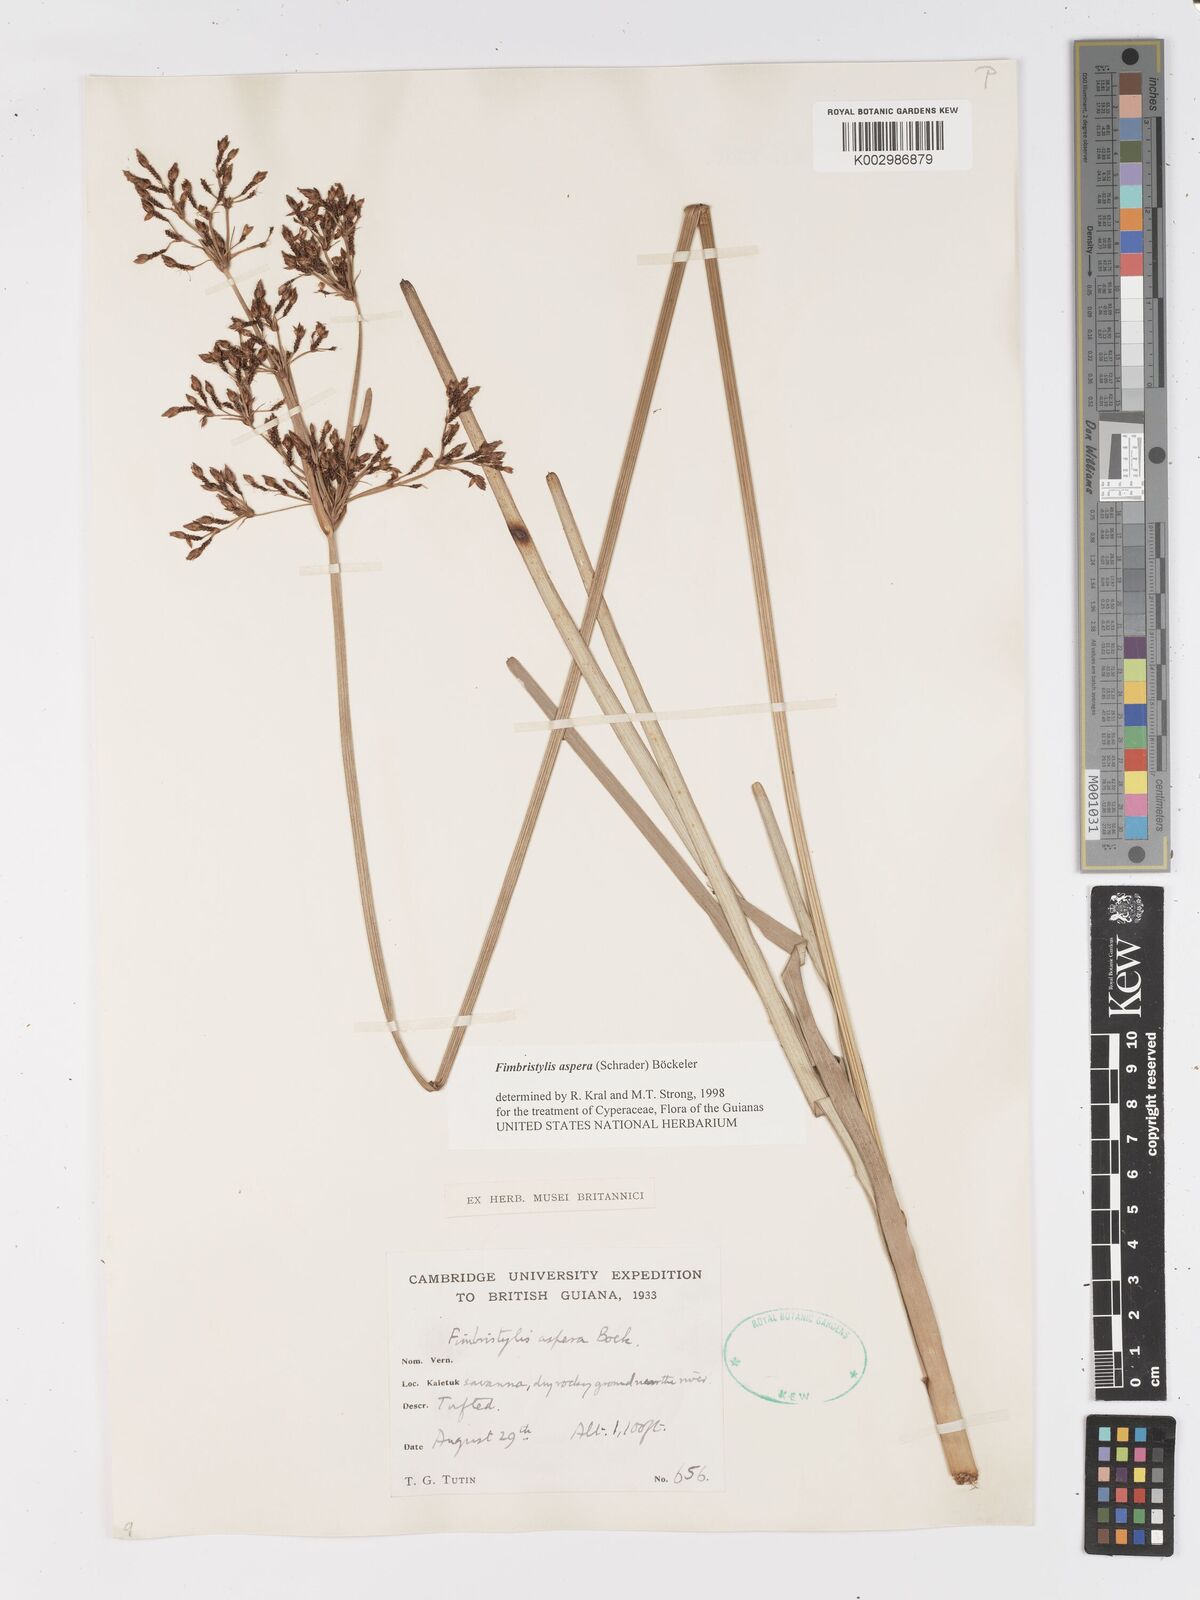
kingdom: Plantae
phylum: Tracheophyta
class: Liliopsida
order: Poales
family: Cyperaceae
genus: Fimbristylis
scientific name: Fimbristylis aspera
